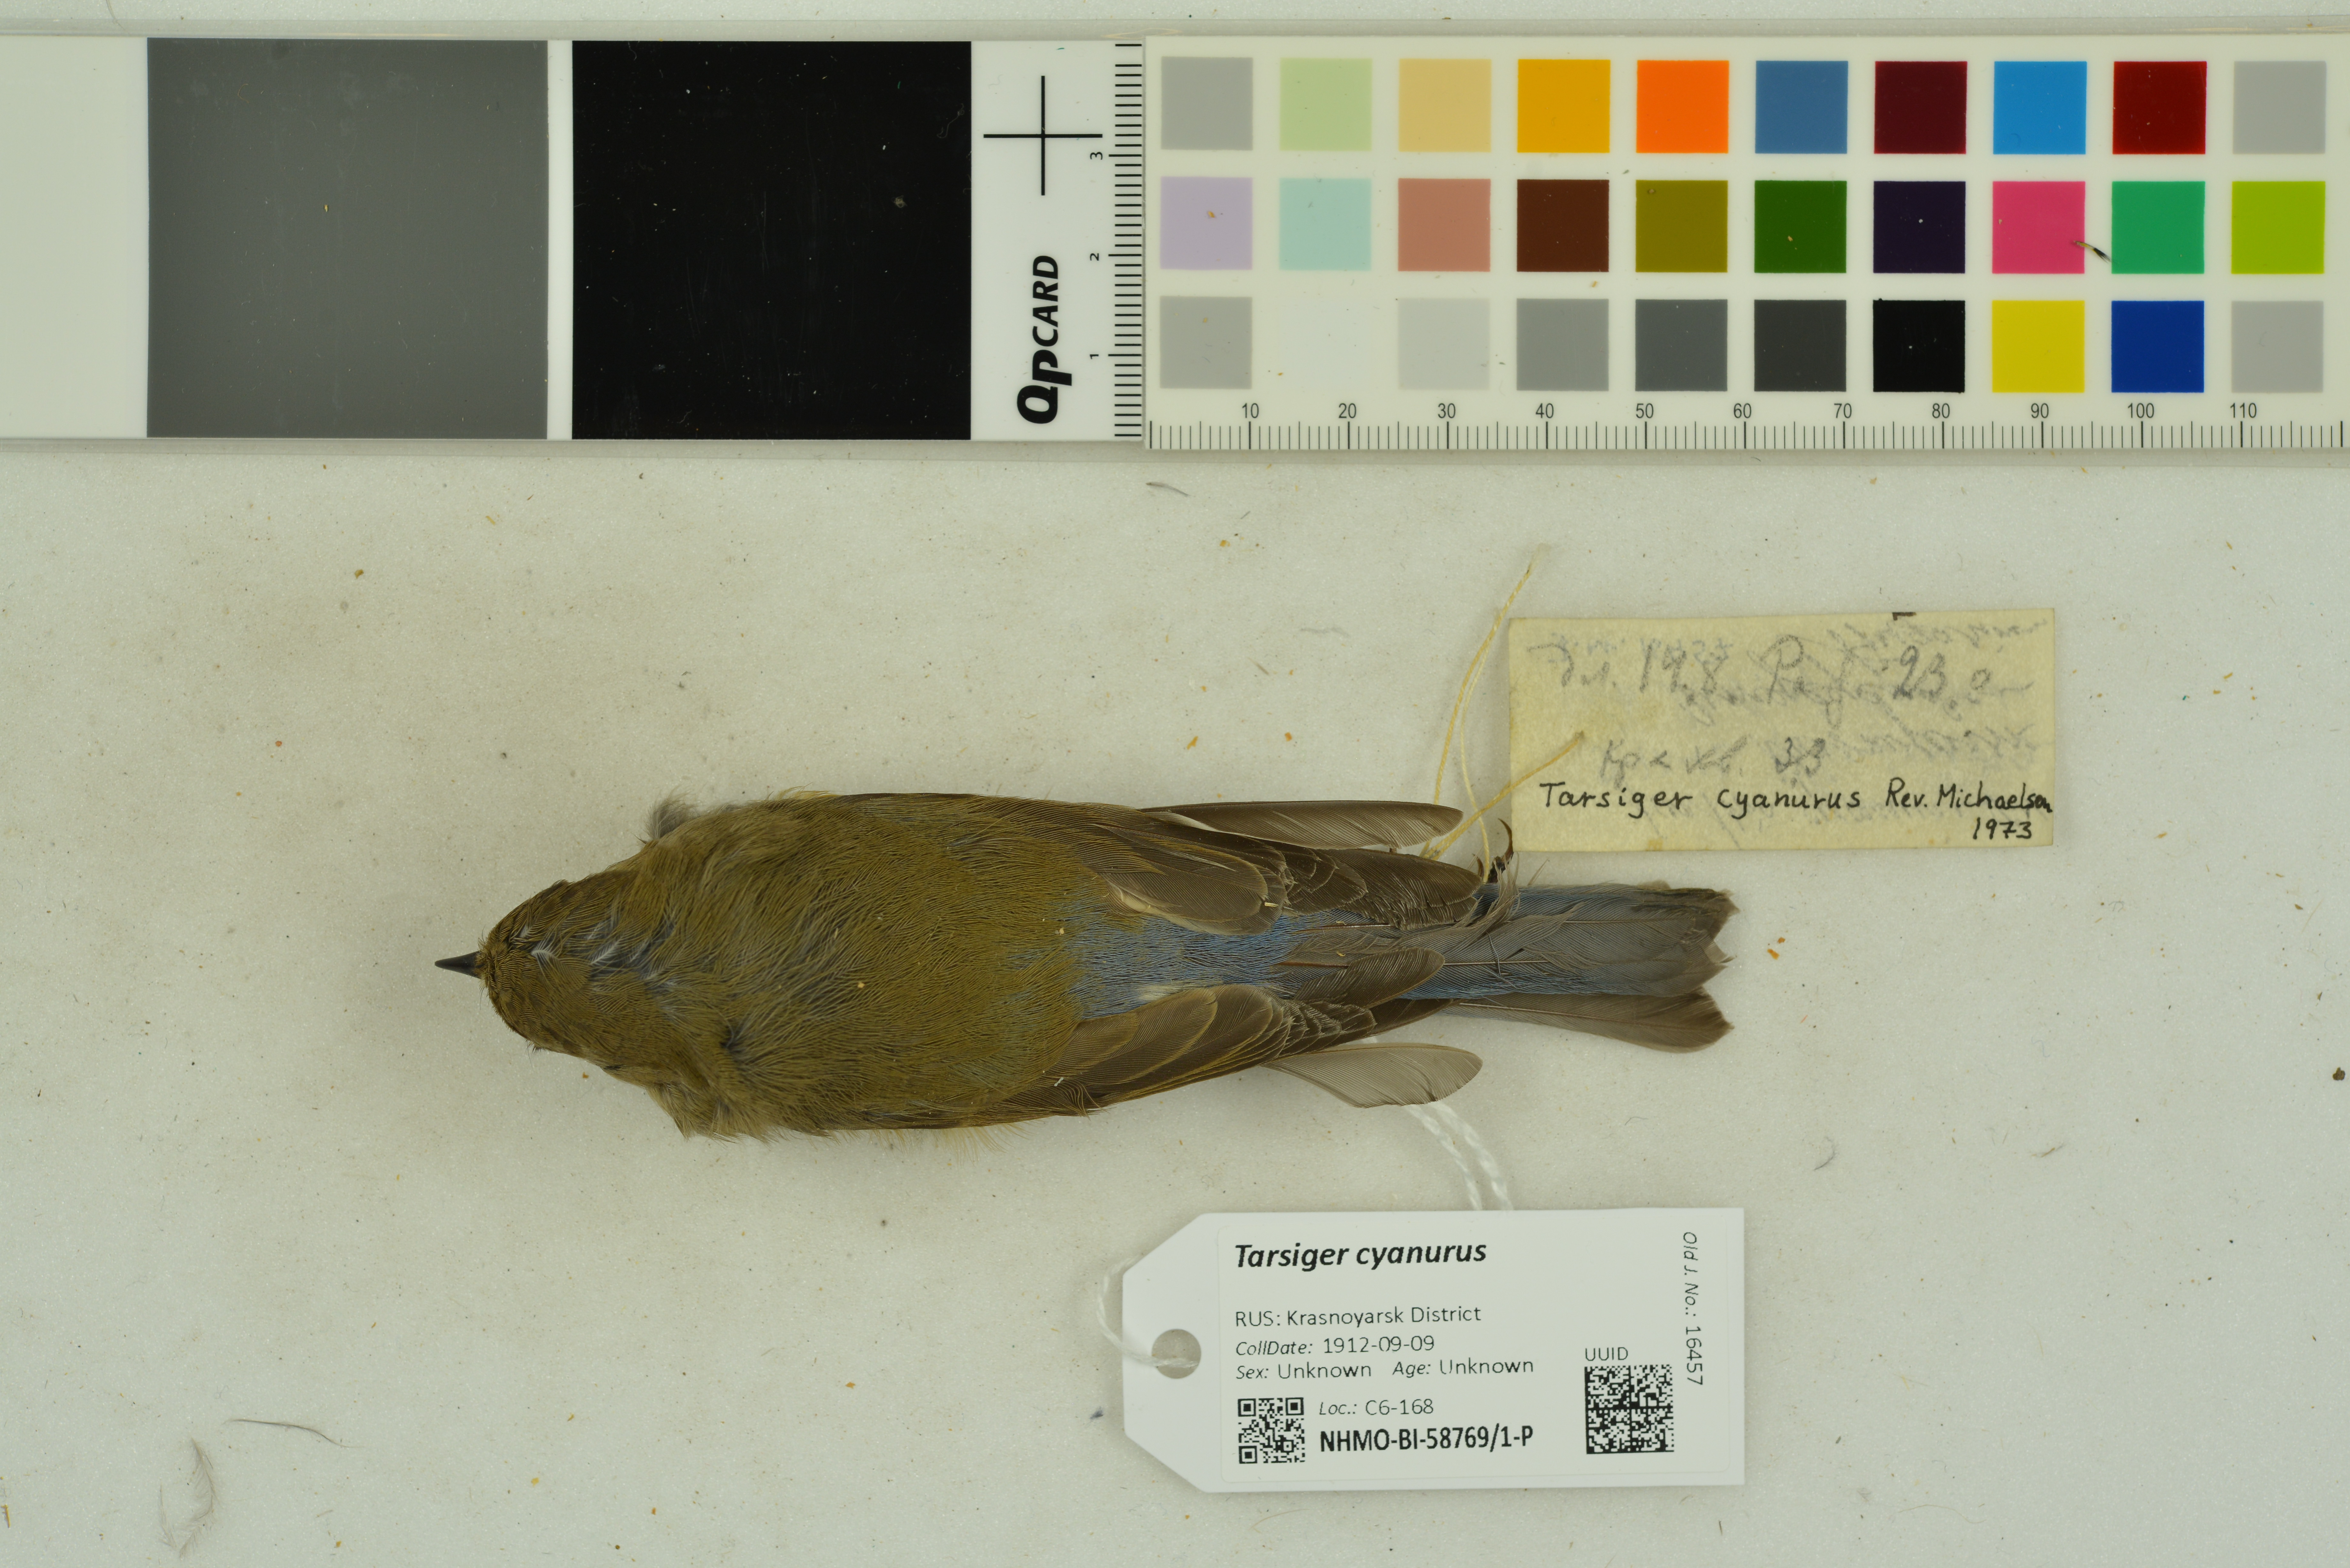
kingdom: Animalia
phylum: Chordata
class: Aves
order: Passeriformes
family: Muscicapidae
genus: Tarsiger
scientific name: Tarsiger cyanurus
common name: Red-flanked bluetail
